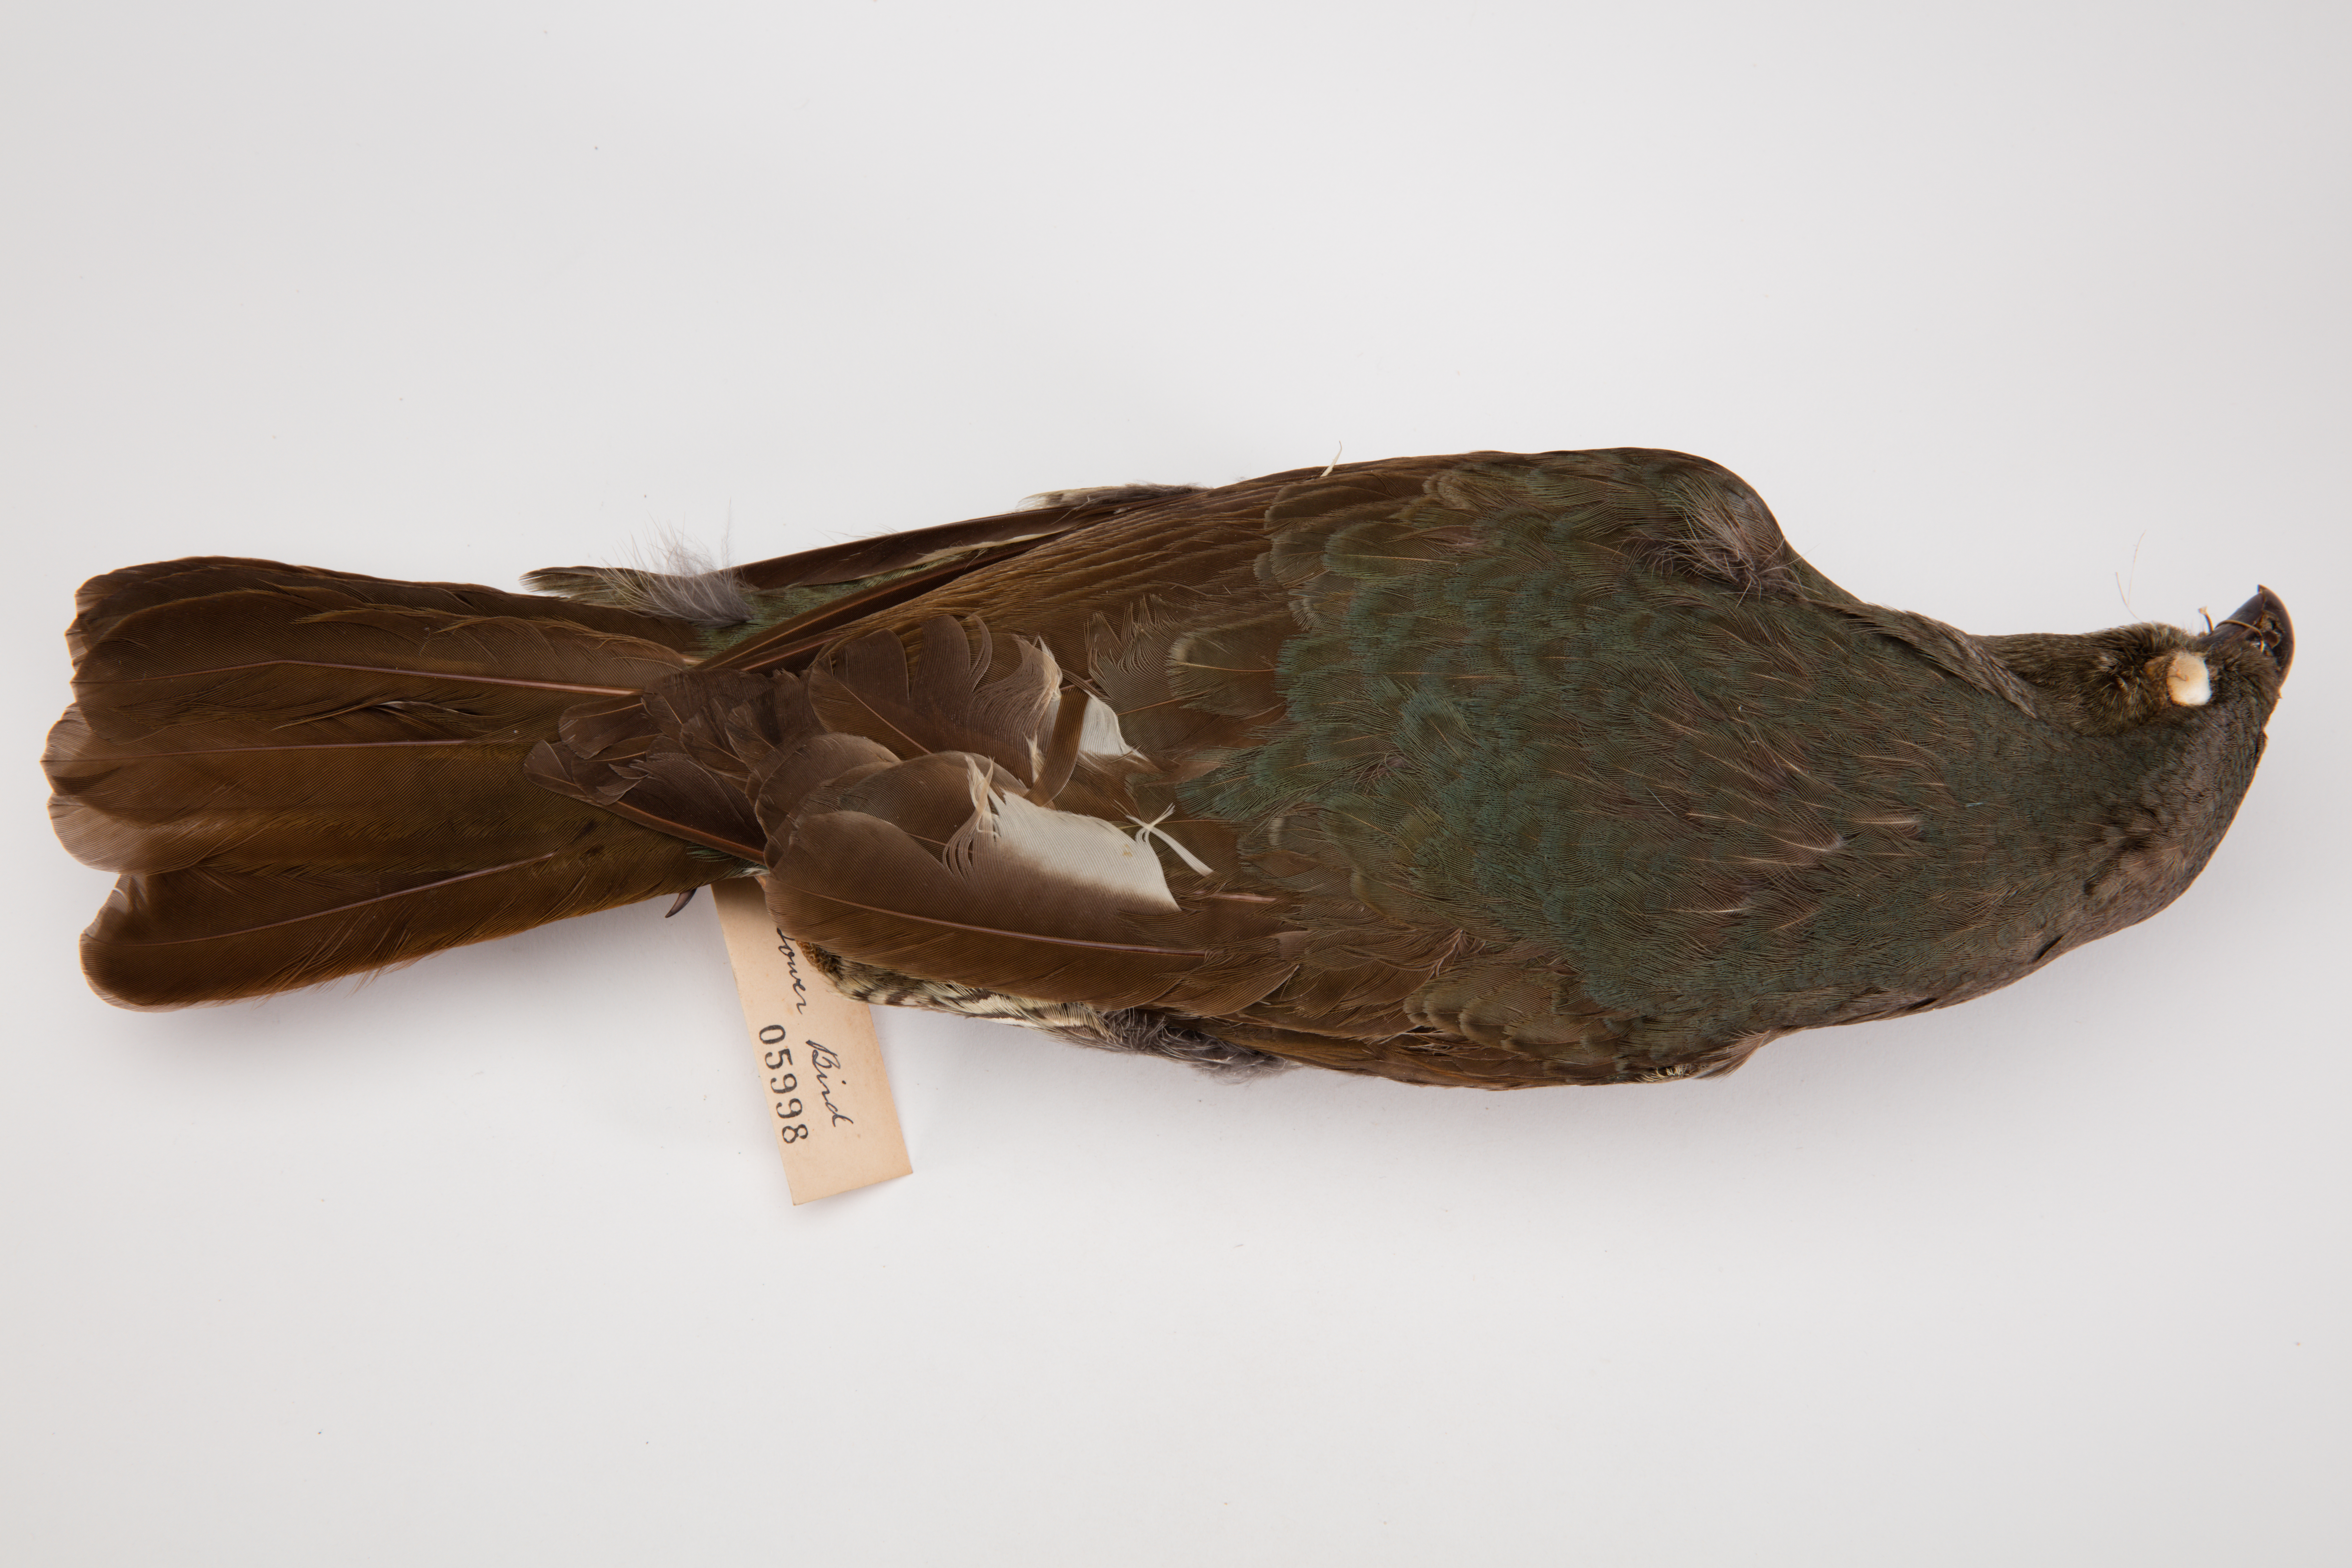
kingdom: Animalia
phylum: Chordata
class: Aves
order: Passeriformes
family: Ptilonorhynchidae
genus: Ptilonorhynchus
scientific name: Ptilonorhynchus violaceus
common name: Satin bowerbird
